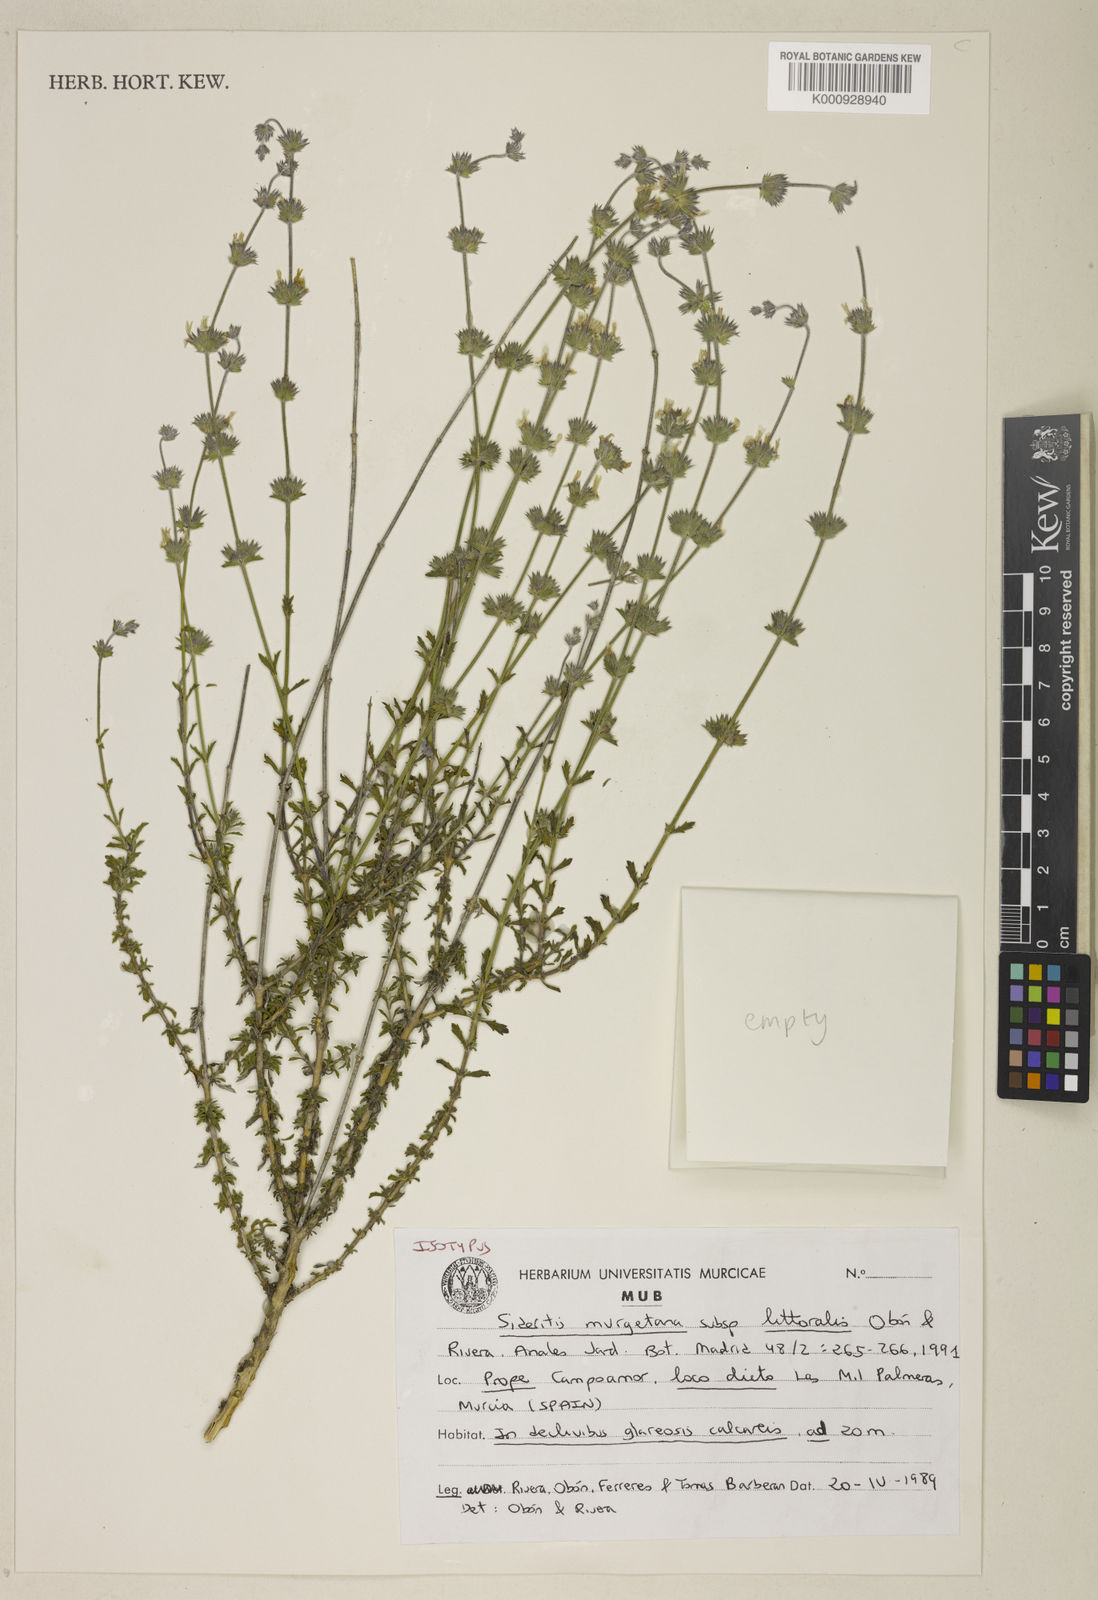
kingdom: Plantae
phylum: Tracheophyta
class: Magnoliopsida
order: Lamiales
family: Lamiaceae
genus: Sideritis
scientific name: Sideritis
